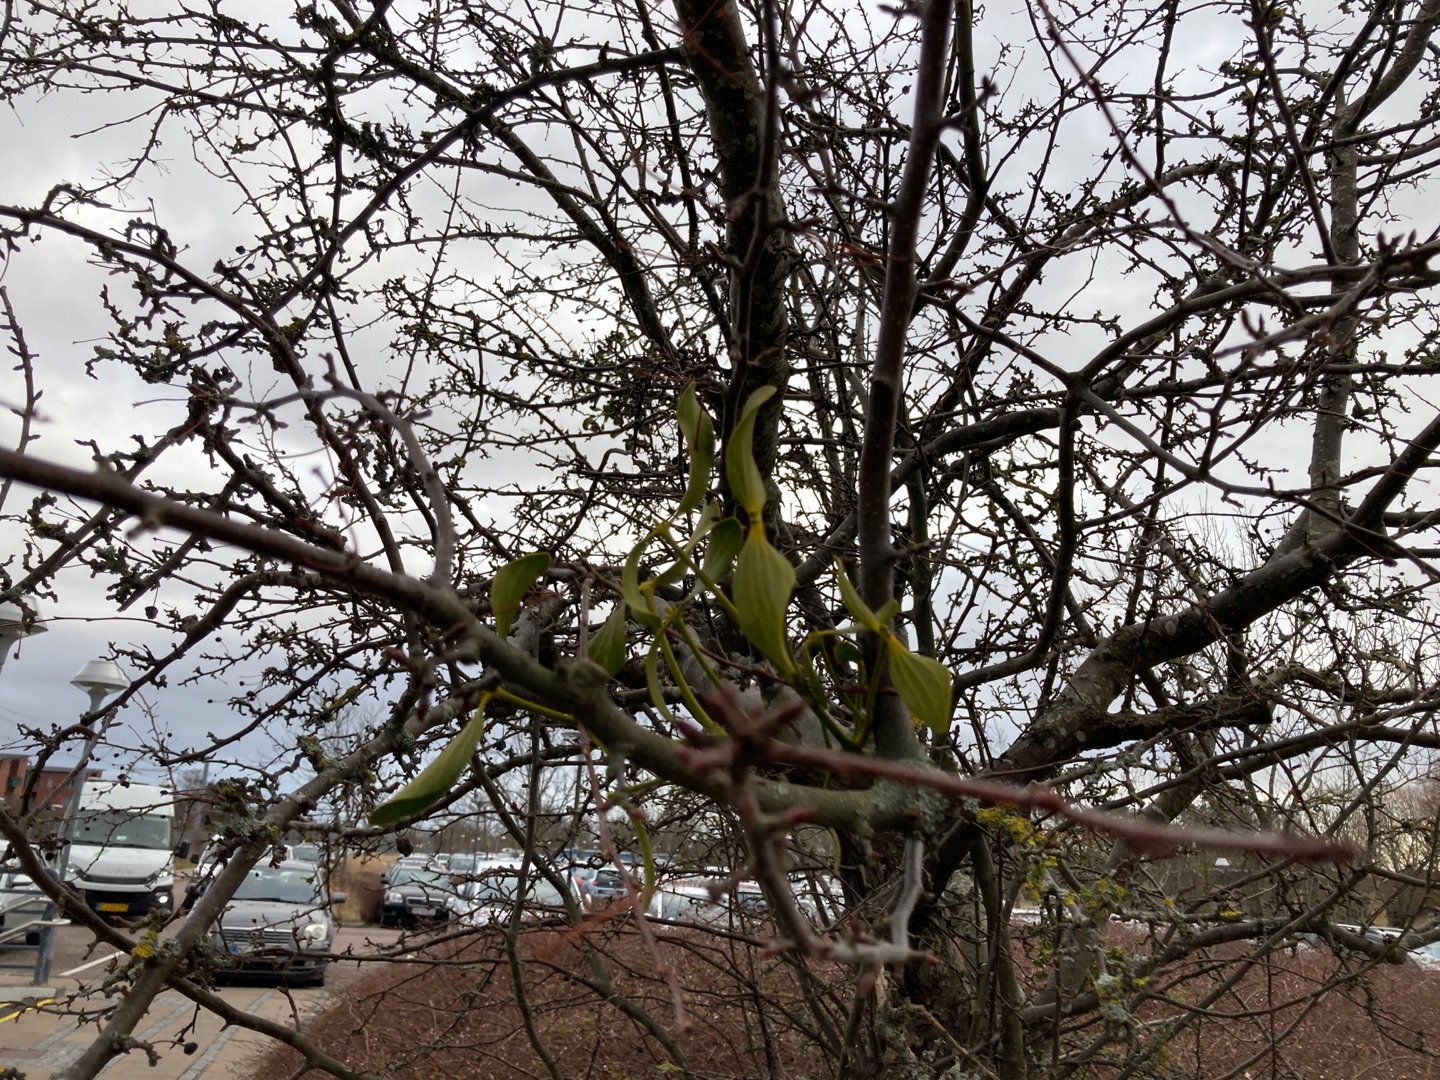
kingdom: Plantae
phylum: Tracheophyta
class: Magnoliopsida
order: Santalales
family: Viscaceae
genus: Viscum
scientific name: Viscum album
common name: Mistelten
